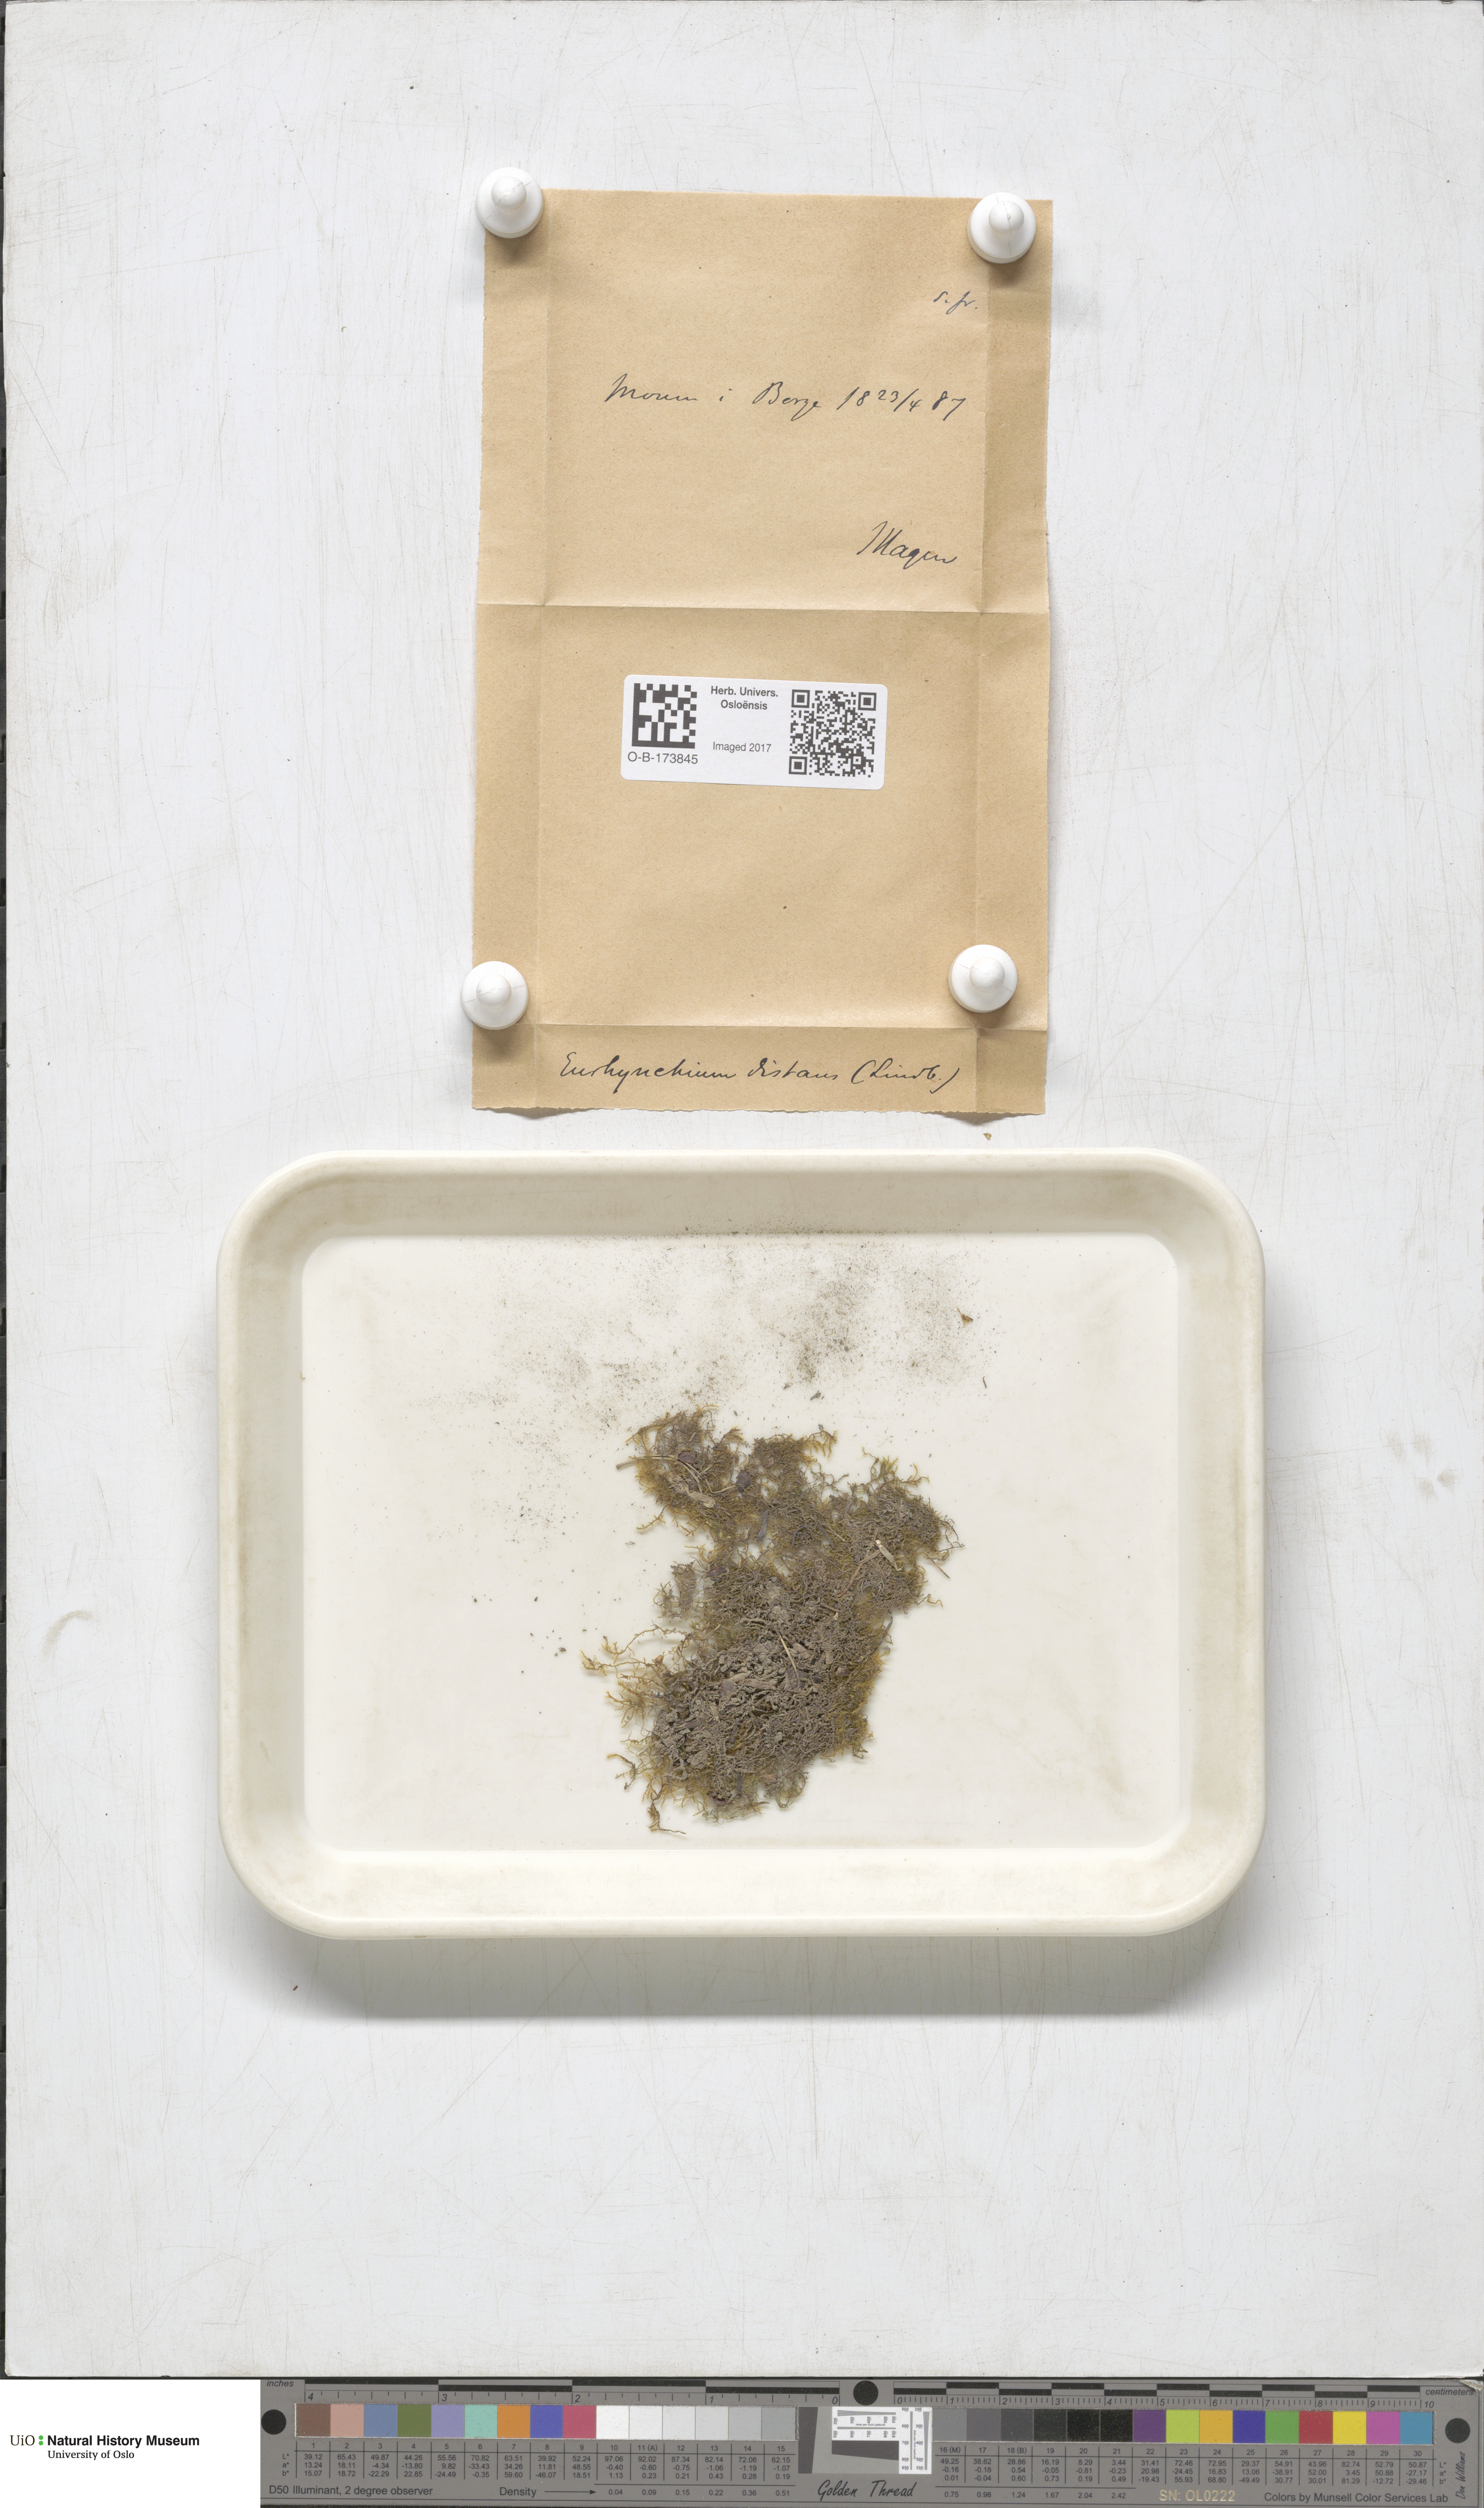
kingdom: Plantae
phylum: Bryophyta
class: Bryopsida
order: Hypnales
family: Brachytheciaceae
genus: Oxyrrhynchium
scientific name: Oxyrrhynchium hians
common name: Spreading beaked moss
